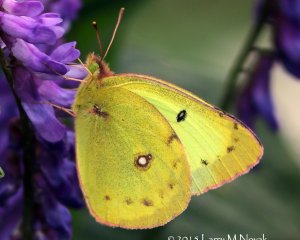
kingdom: Animalia
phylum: Arthropoda
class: Insecta
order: Lepidoptera
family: Pieridae
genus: Colias
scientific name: Colias philodice
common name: Clouded Sulphur
